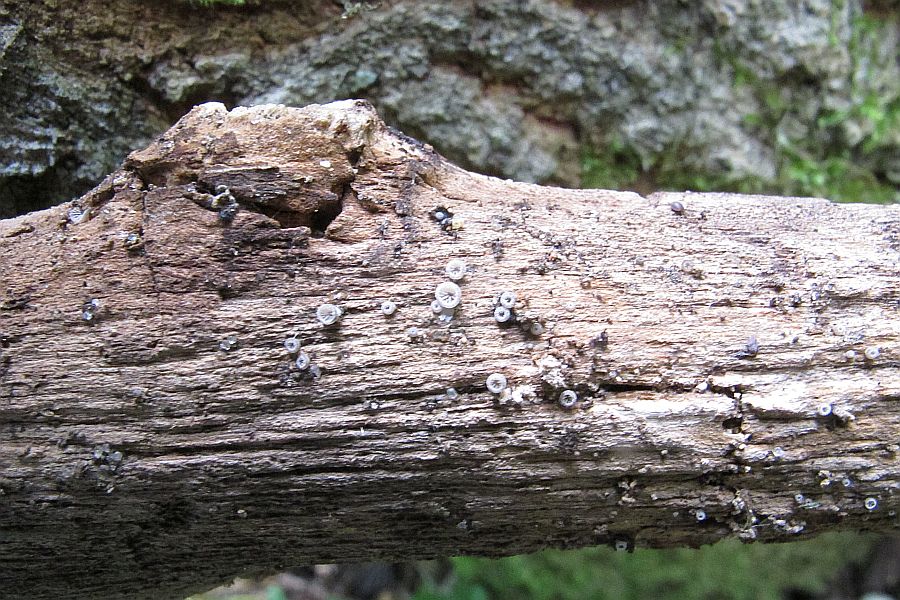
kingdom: Fungi
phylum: Basidiomycota
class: Agaricomycetes
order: Agaricales
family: Pleurotaceae
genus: Resupinatus
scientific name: Resupinatus applicatus
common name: lysfiltet barkhat
